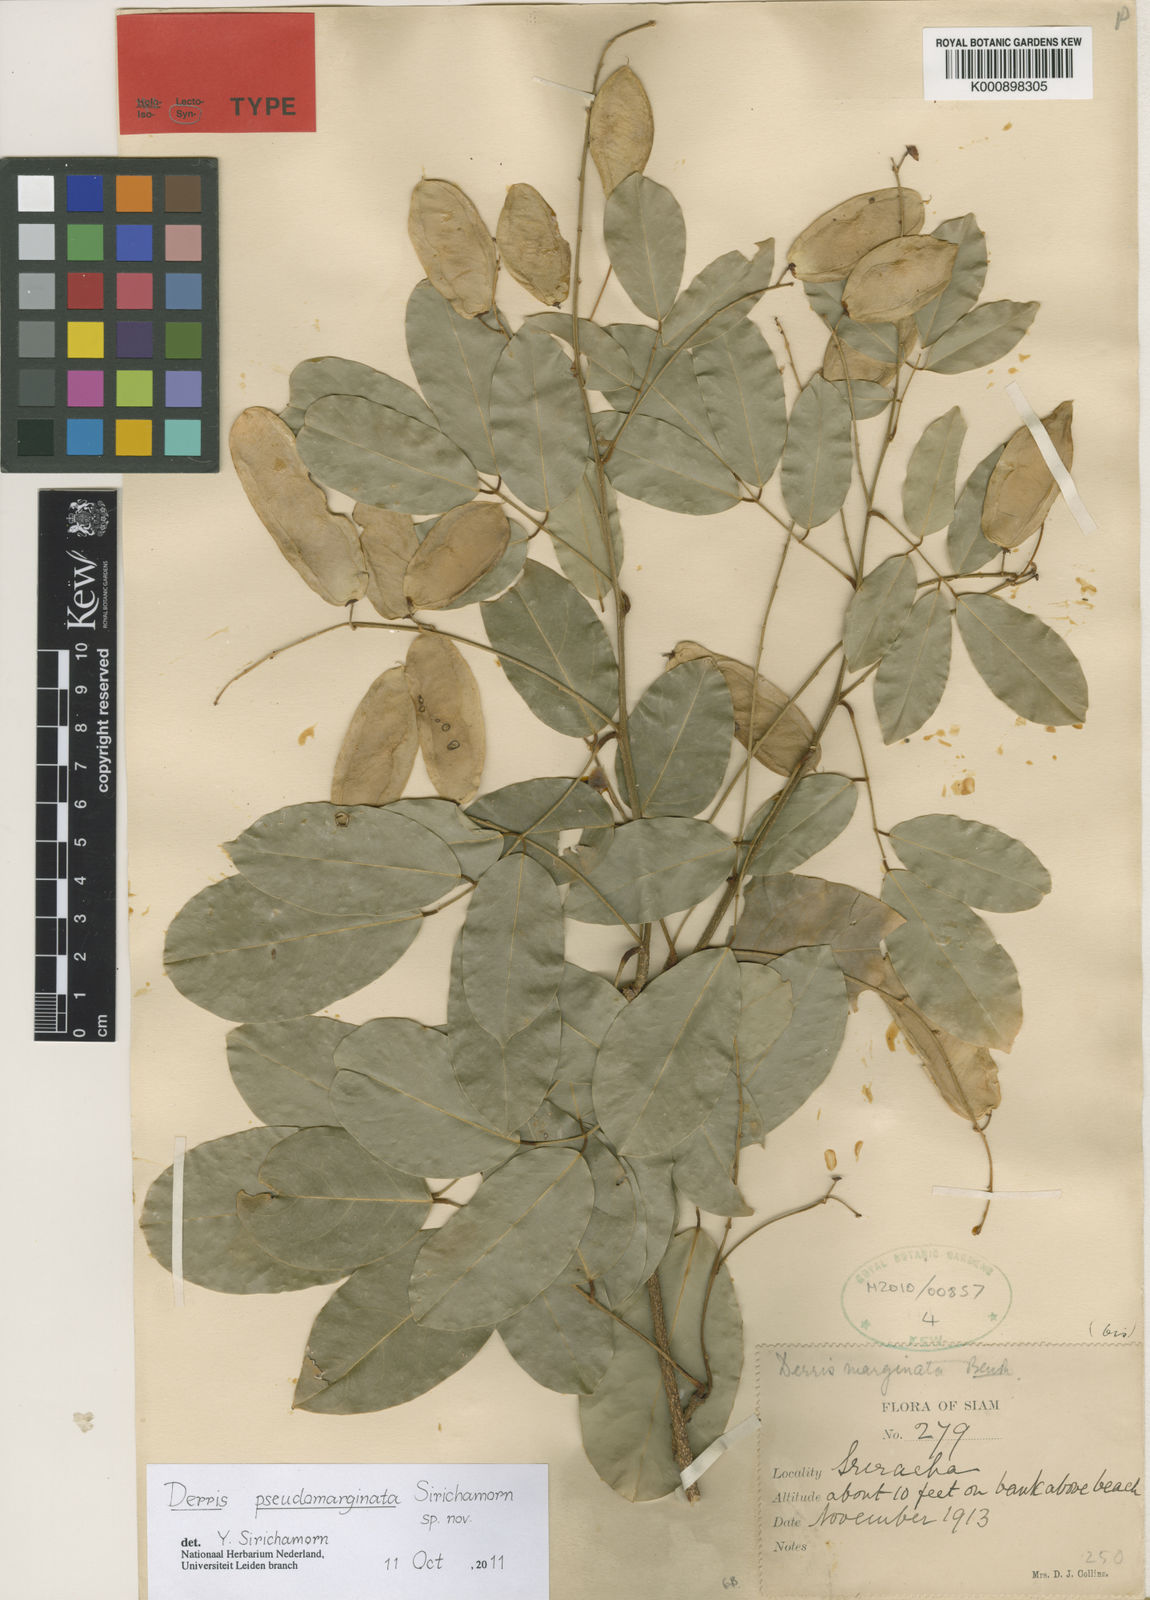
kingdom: Plantae
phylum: Tracheophyta
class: Magnoliopsida
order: Fabales
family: Fabaceae
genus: Derris
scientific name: Derris pseudomarginata
